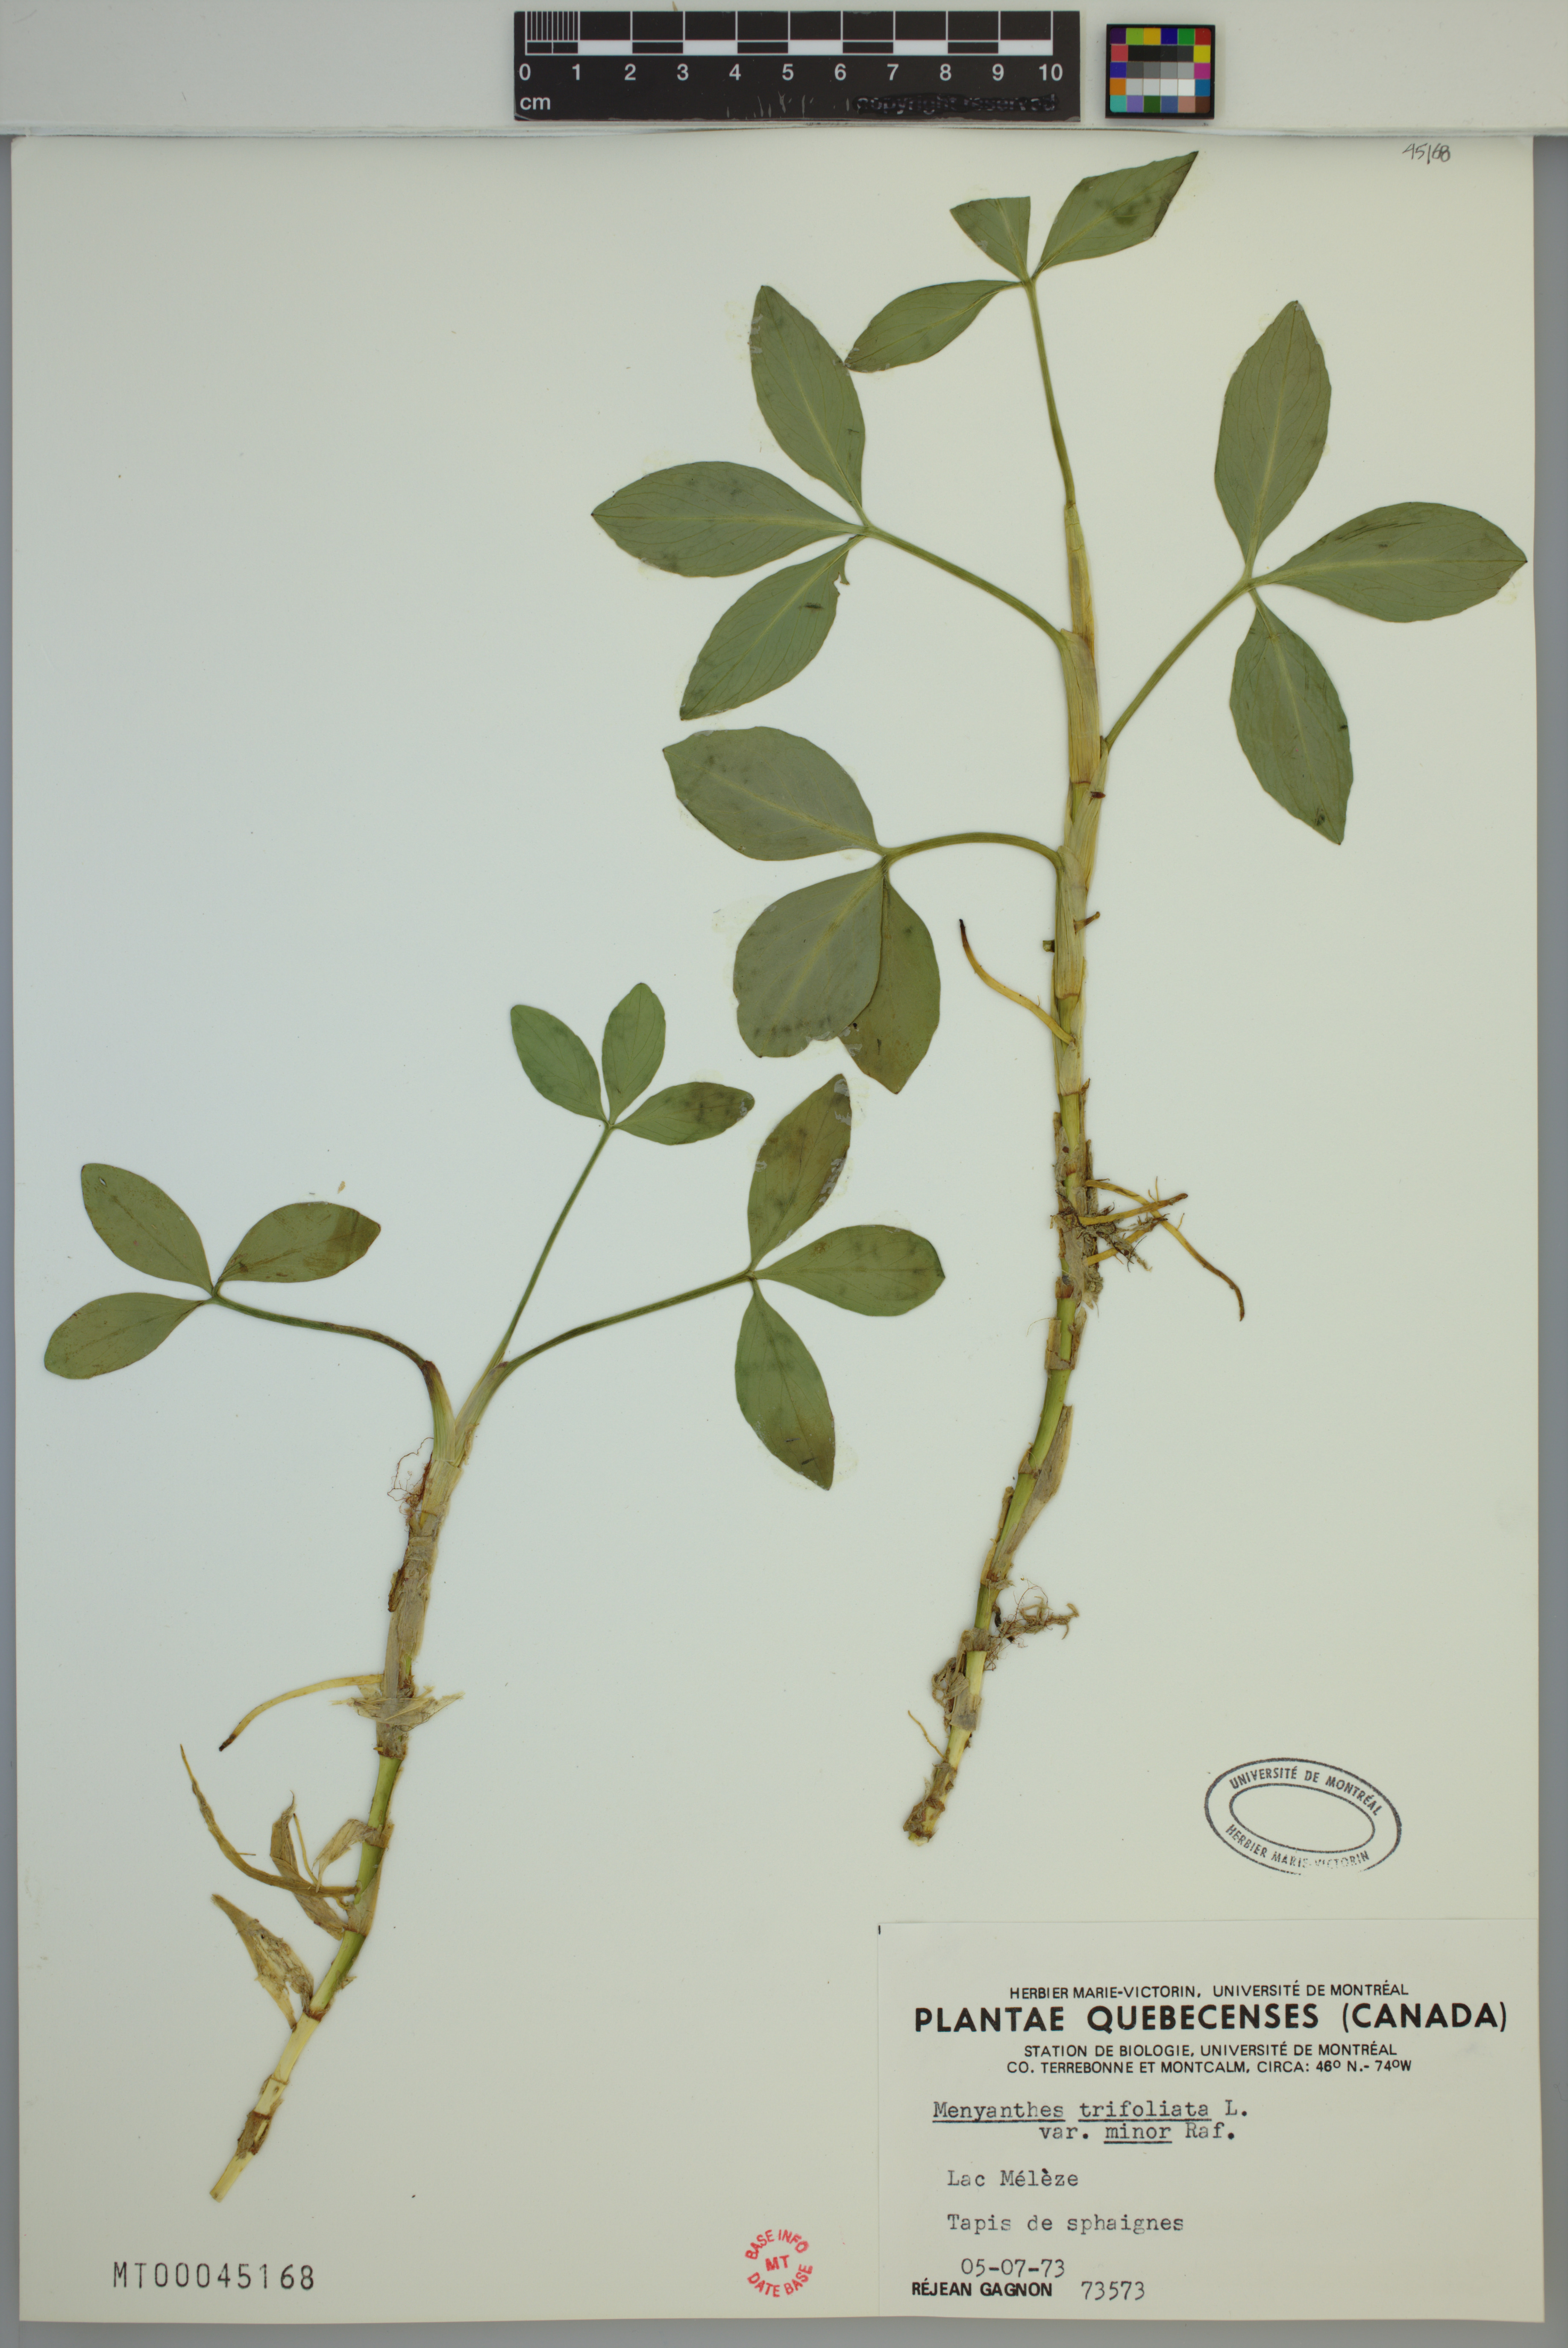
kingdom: Plantae
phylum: Tracheophyta
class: Magnoliopsida
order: Asterales
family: Menyanthaceae
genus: Menyanthes
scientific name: Menyanthes trifoliata
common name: Bogbean
